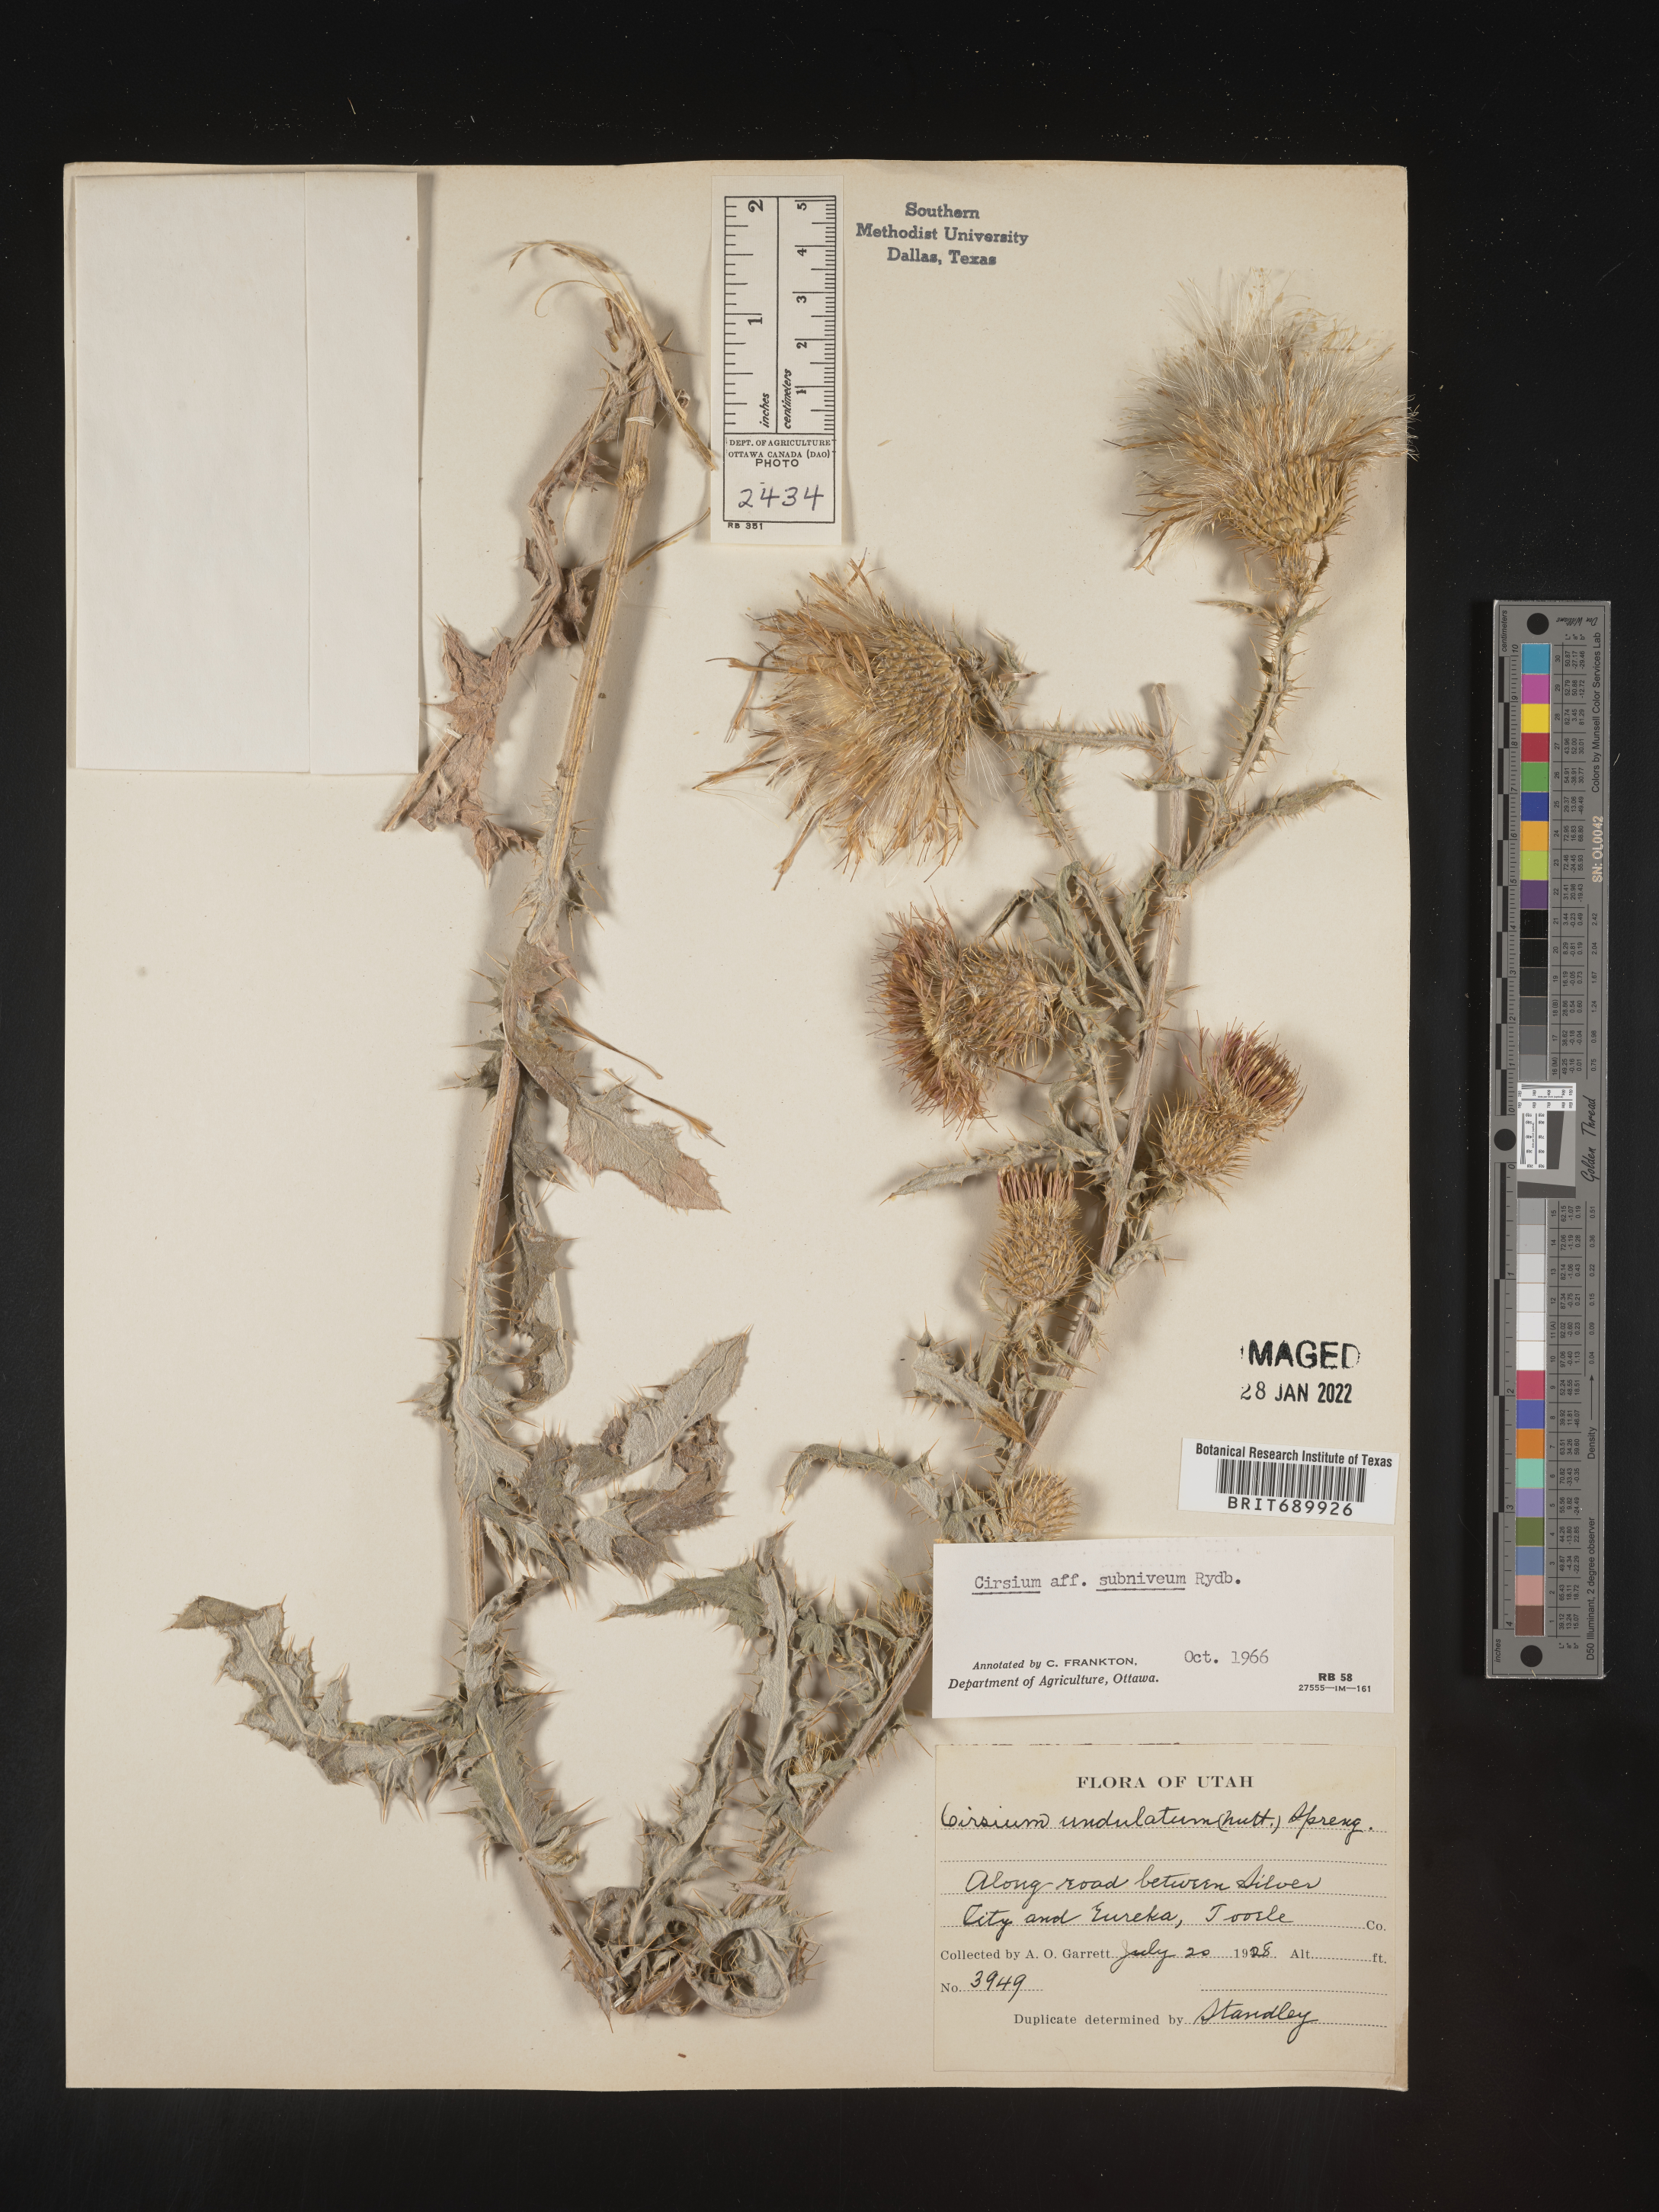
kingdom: Plantae
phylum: Tracheophyta
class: Magnoliopsida
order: Asterales
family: Asteraceae
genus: Cirsium
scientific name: Cirsium inamoenum
